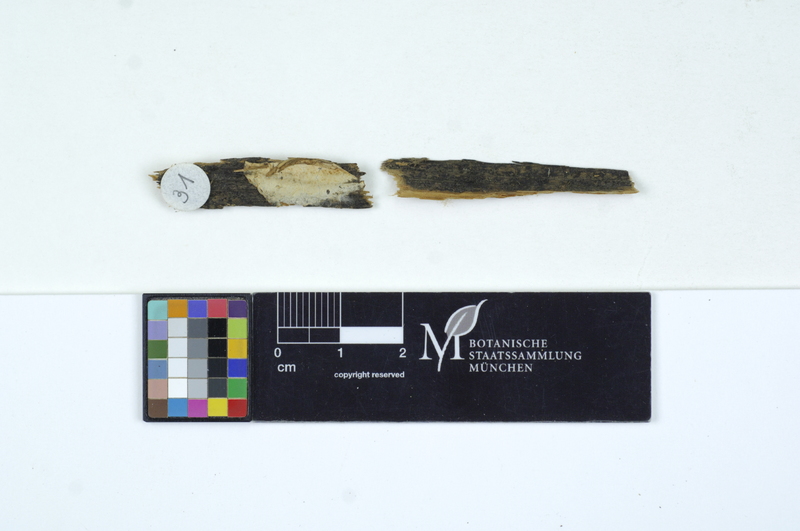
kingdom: Fungi
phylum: Basidiomycota
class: Agaricomycetes
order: Amylocorticiales
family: Amylocorticiaceae
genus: Amylocorticiellum
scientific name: Amylocorticiellum molle
